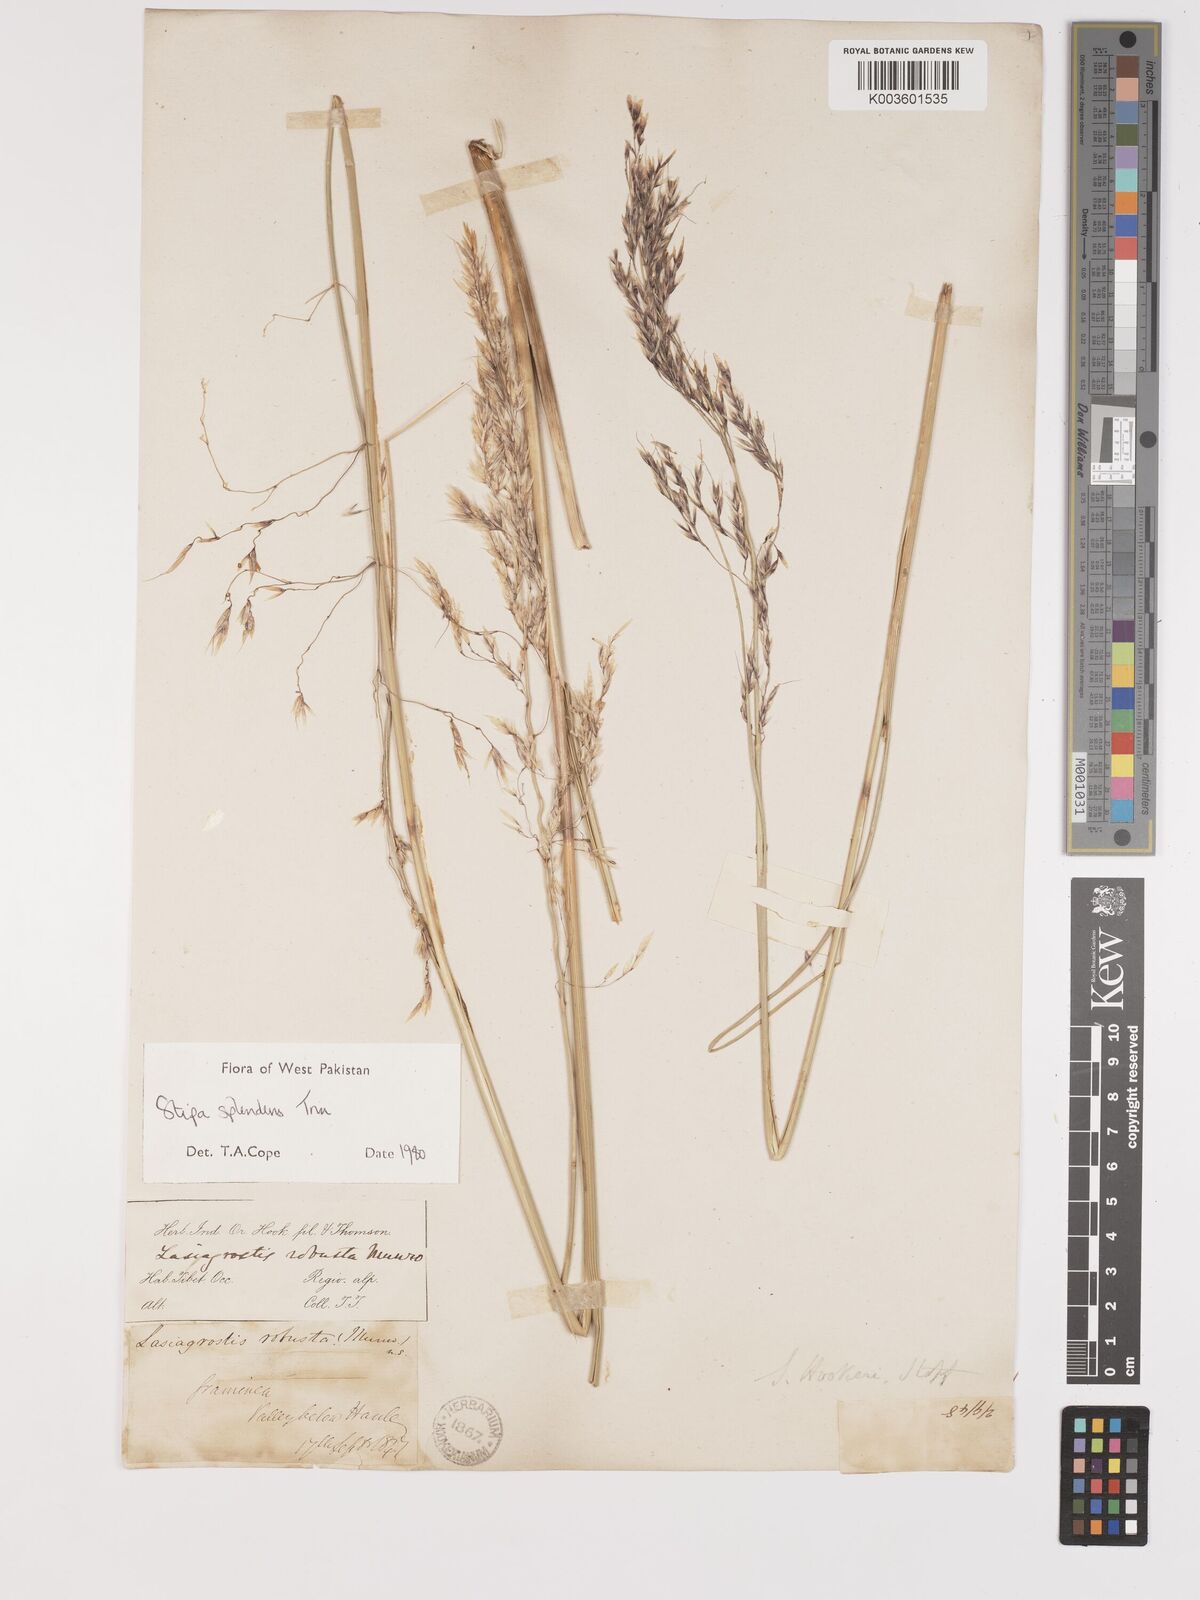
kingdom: Plantae
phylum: Tracheophyta
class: Liliopsida
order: Poales
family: Poaceae
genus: Neotrinia
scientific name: Neotrinia splendens
